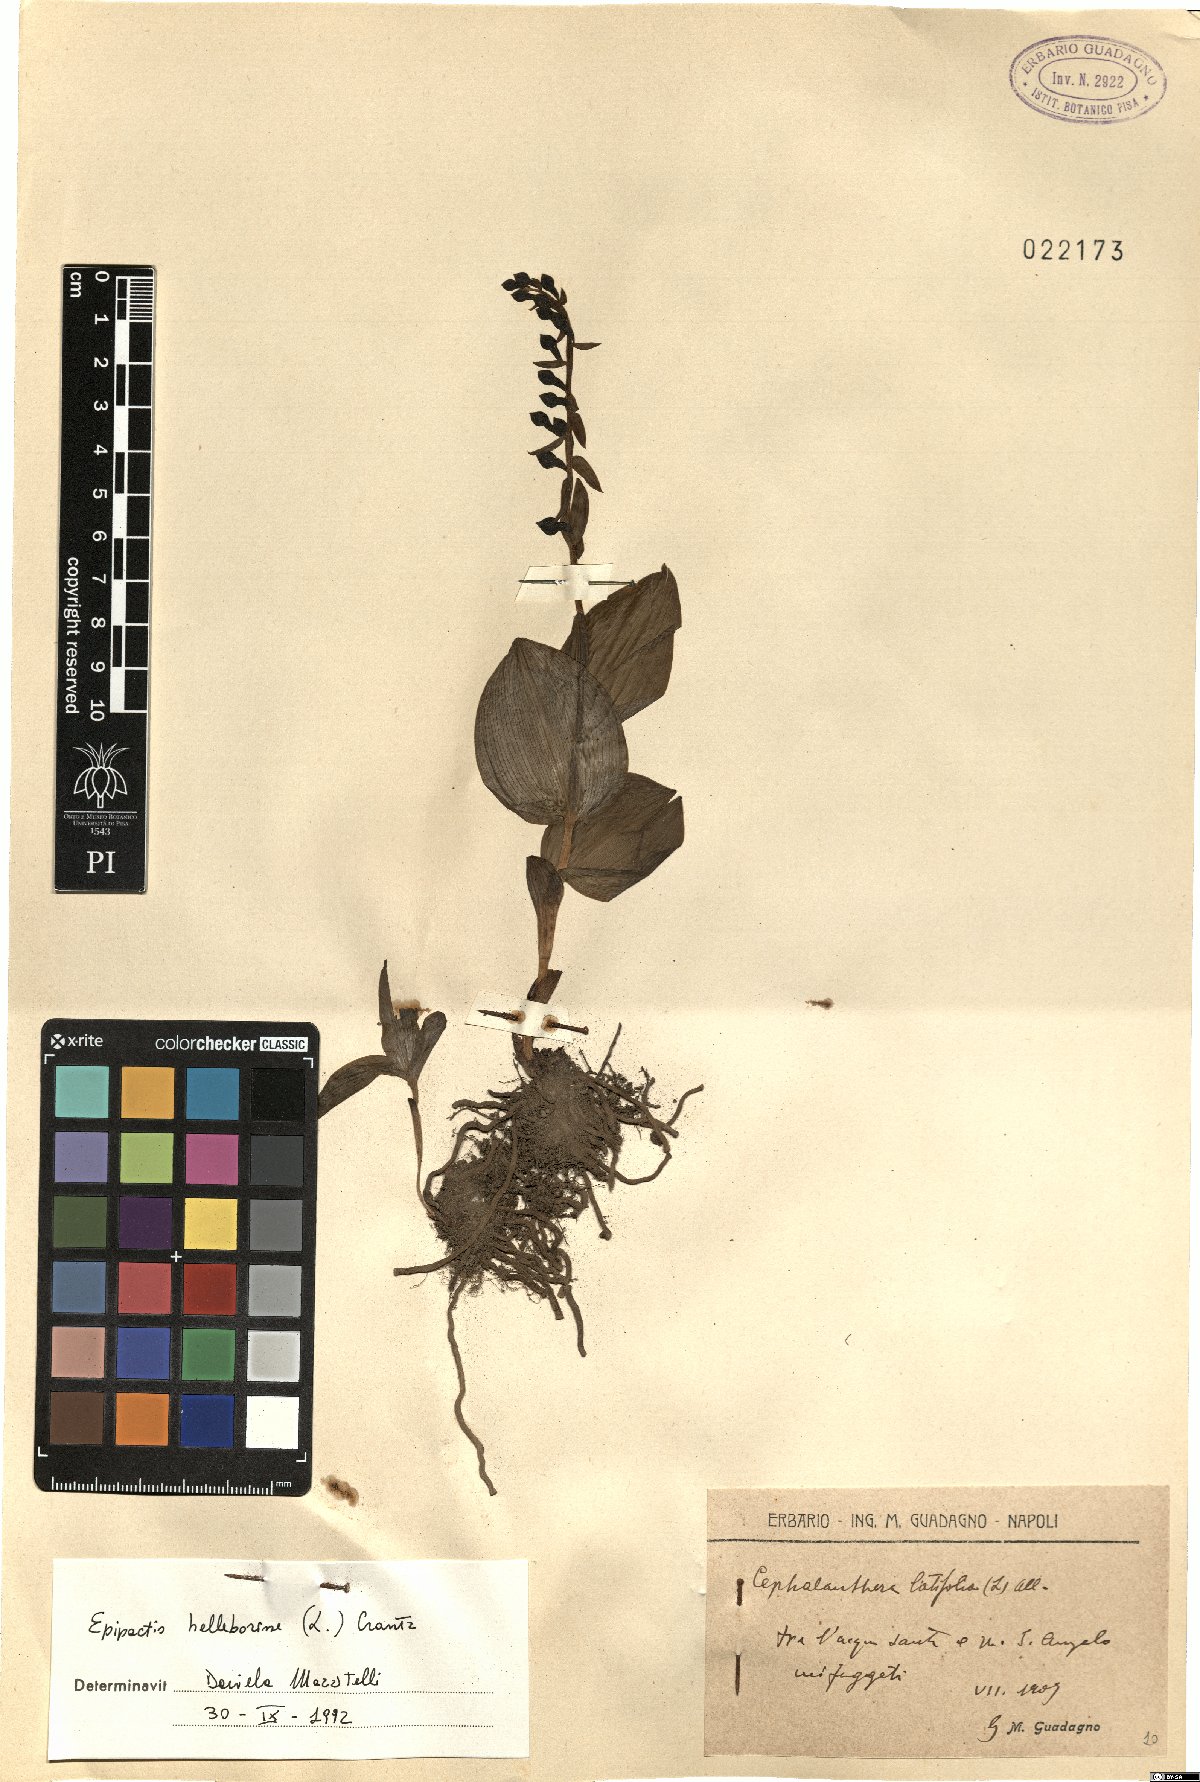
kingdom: Plantae
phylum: Tracheophyta
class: Liliopsida
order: Asparagales
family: Orchidaceae
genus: Epipactis
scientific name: Epipactis helleborine
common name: Broad-leaved helleborine
